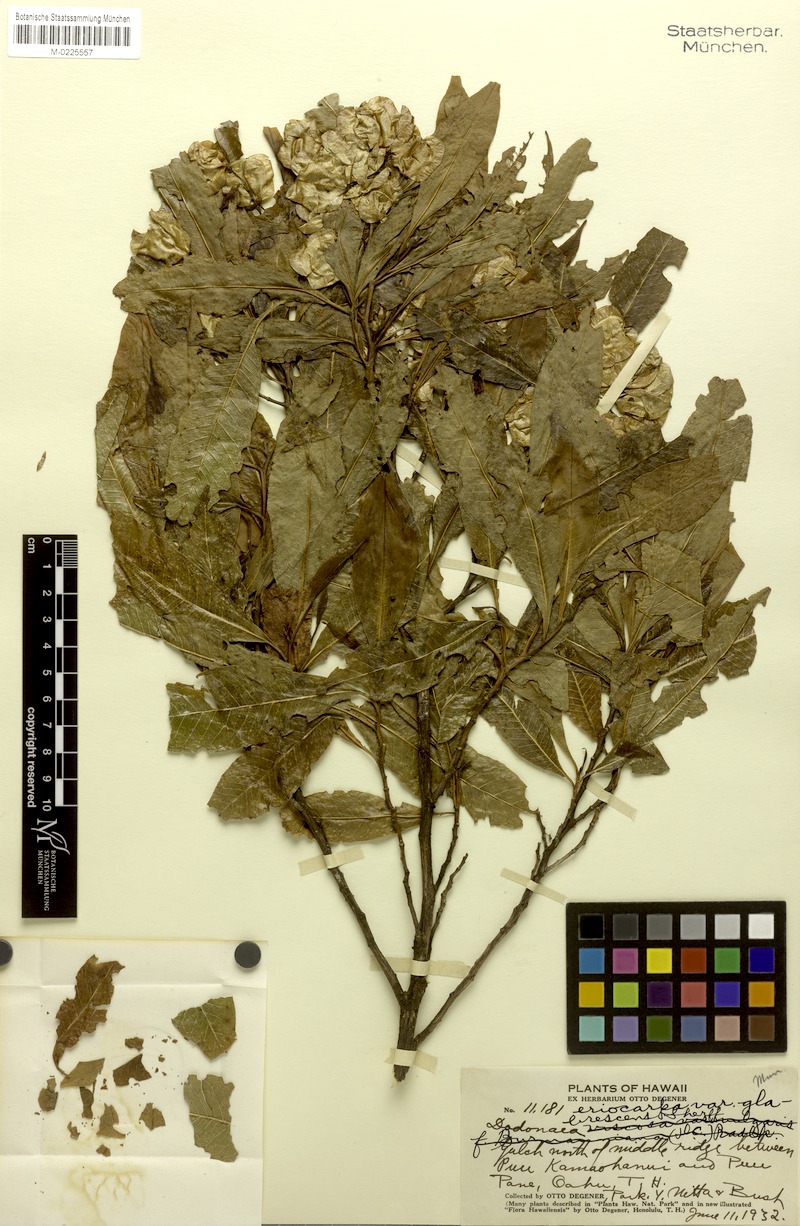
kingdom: Plantae
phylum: Tracheophyta
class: Magnoliopsida
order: Sapindales
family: Sapindaceae
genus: Dodonaea
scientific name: Dodonaea viscosa
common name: Hopbush
